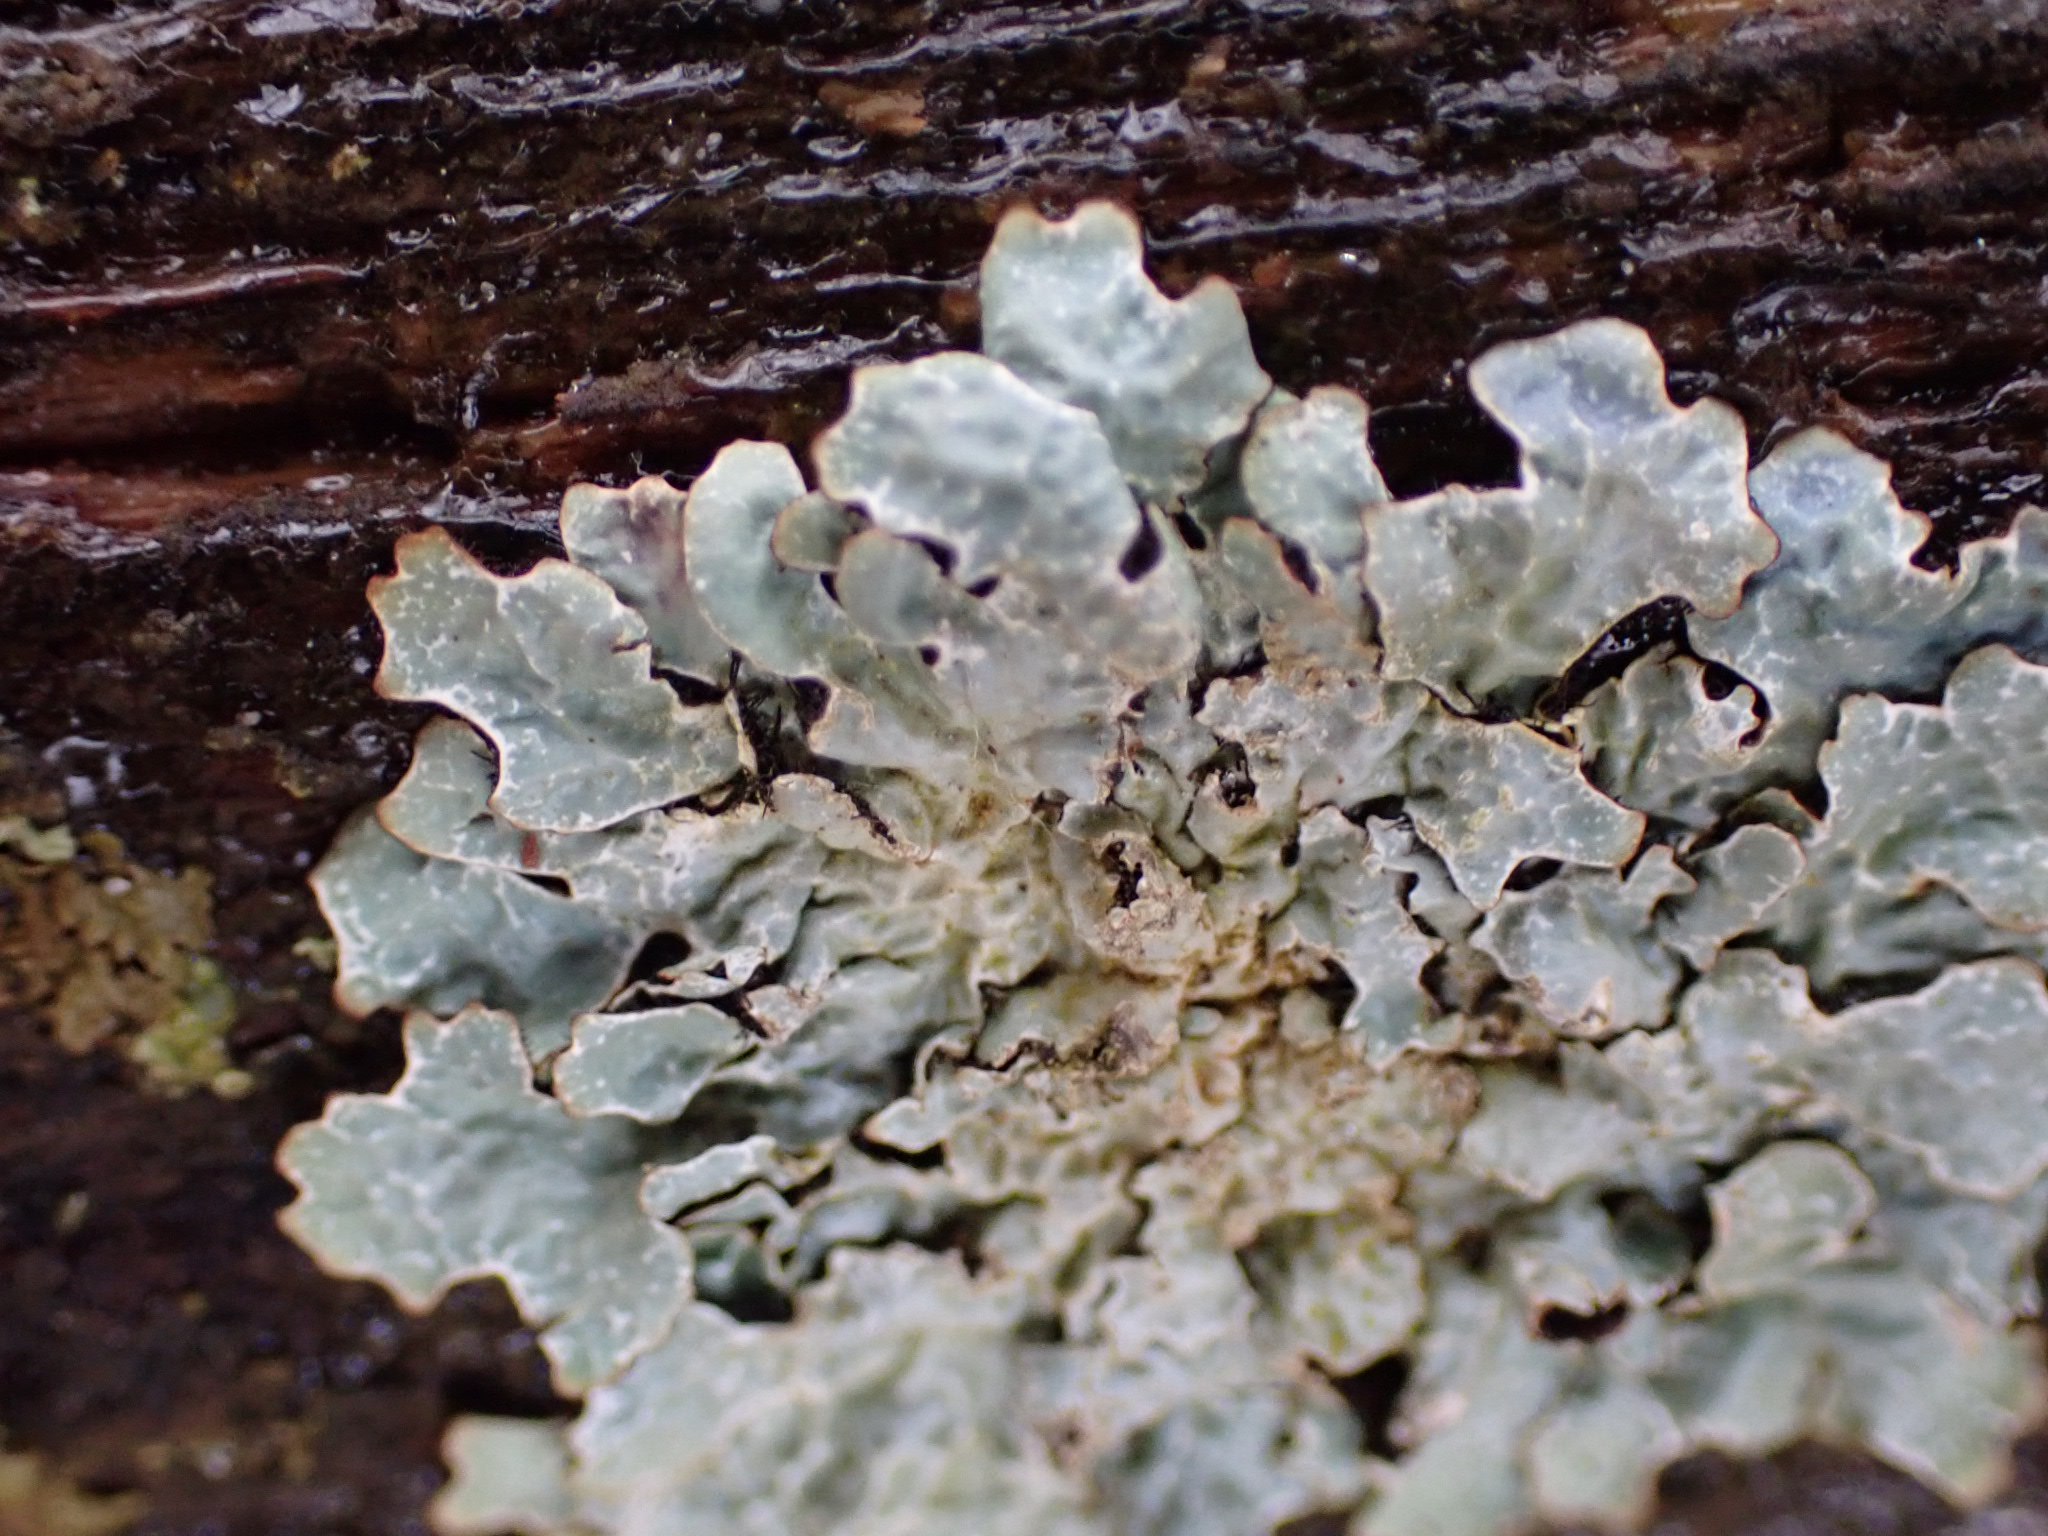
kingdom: Fungi
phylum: Ascomycota
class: Lecanoromycetes
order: Lecanorales
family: Parmeliaceae
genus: Parmelia
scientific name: Parmelia sulcata
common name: rynket skållav
